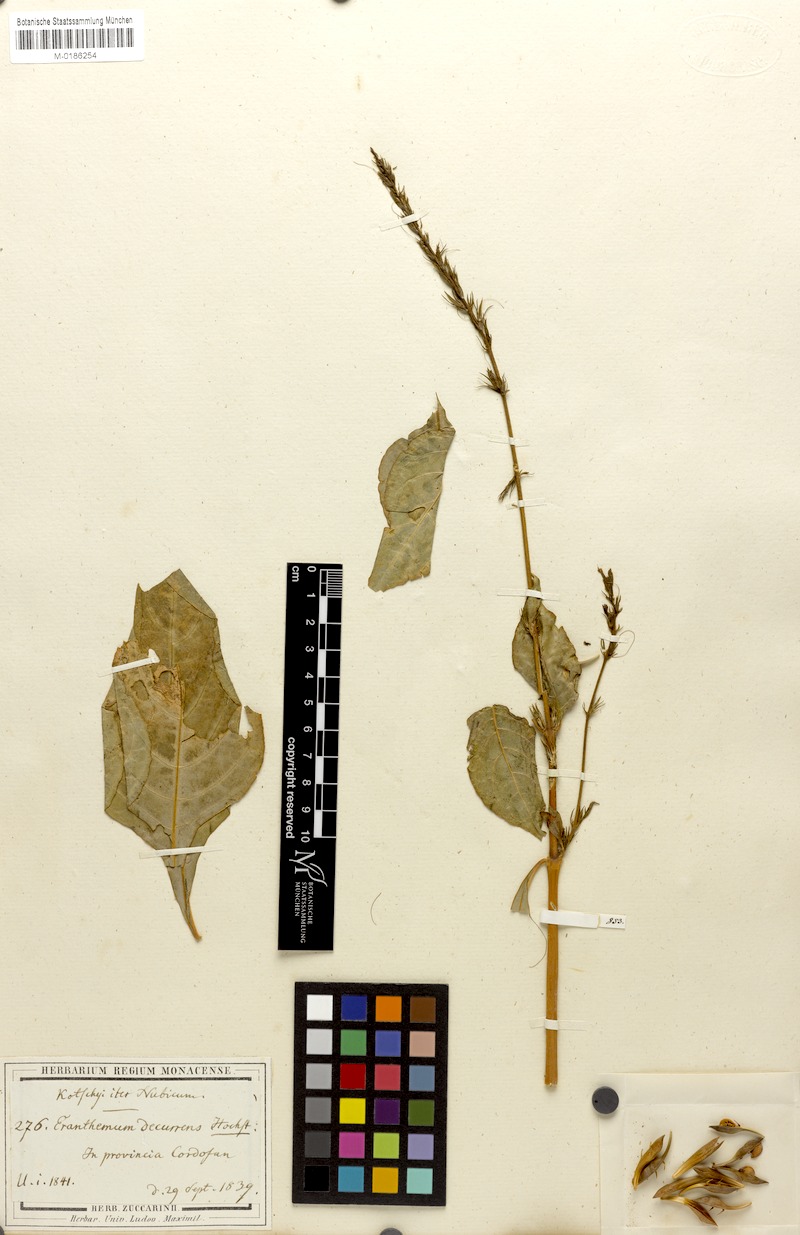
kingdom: Plantae
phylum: Tracheophyta
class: Magnoliopsida
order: Lamiales
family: Acanthaceae
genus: Ruspolia
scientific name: Ruspolia decurrens
